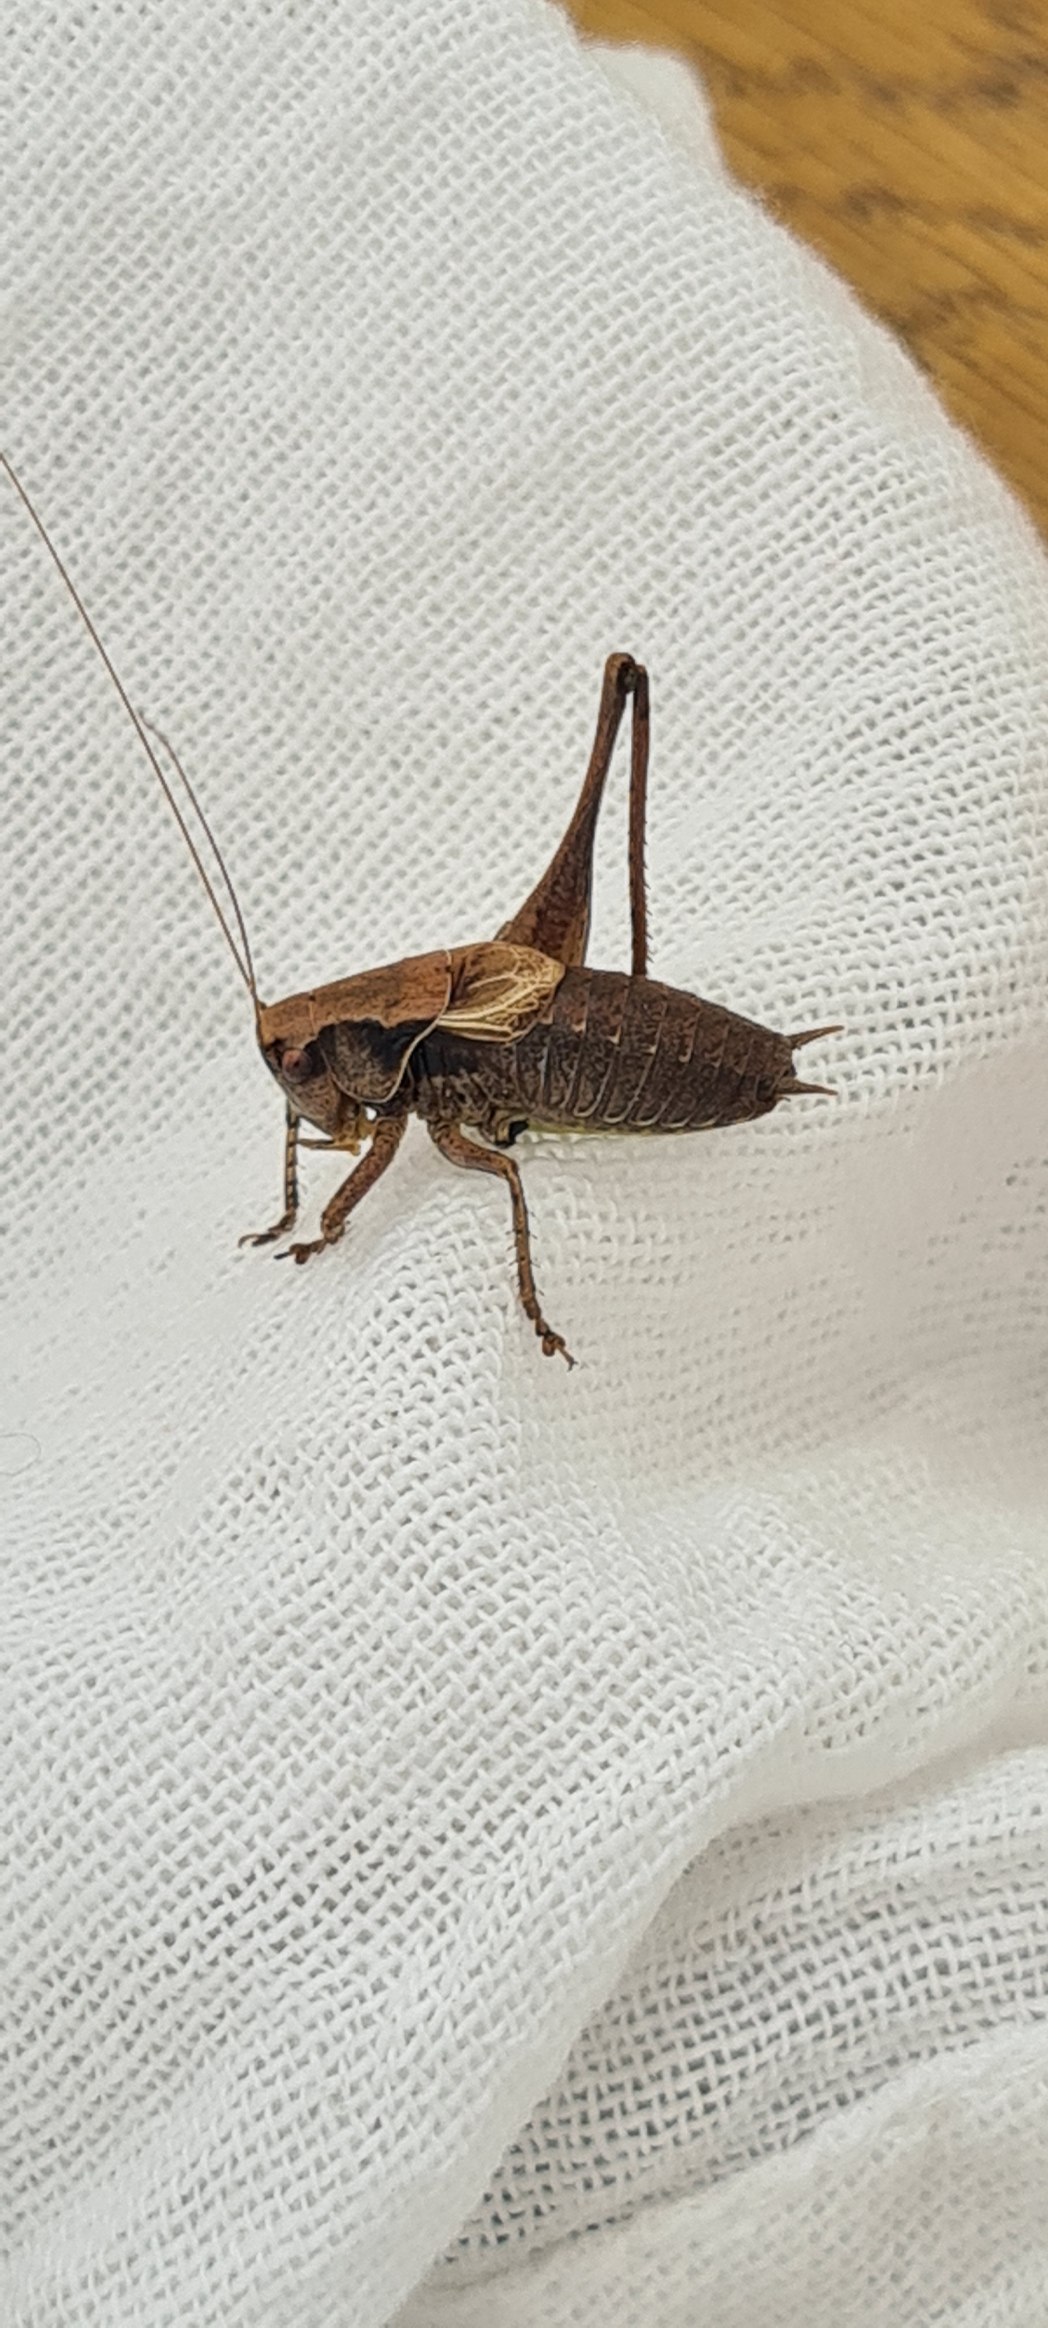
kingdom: Animalia
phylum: Arthropoda
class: Insecta
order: Orthoptera
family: Tettigoniidae
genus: Pholidoptera
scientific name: Pholidoptera griseoaptera
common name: Buskgræshoppe
